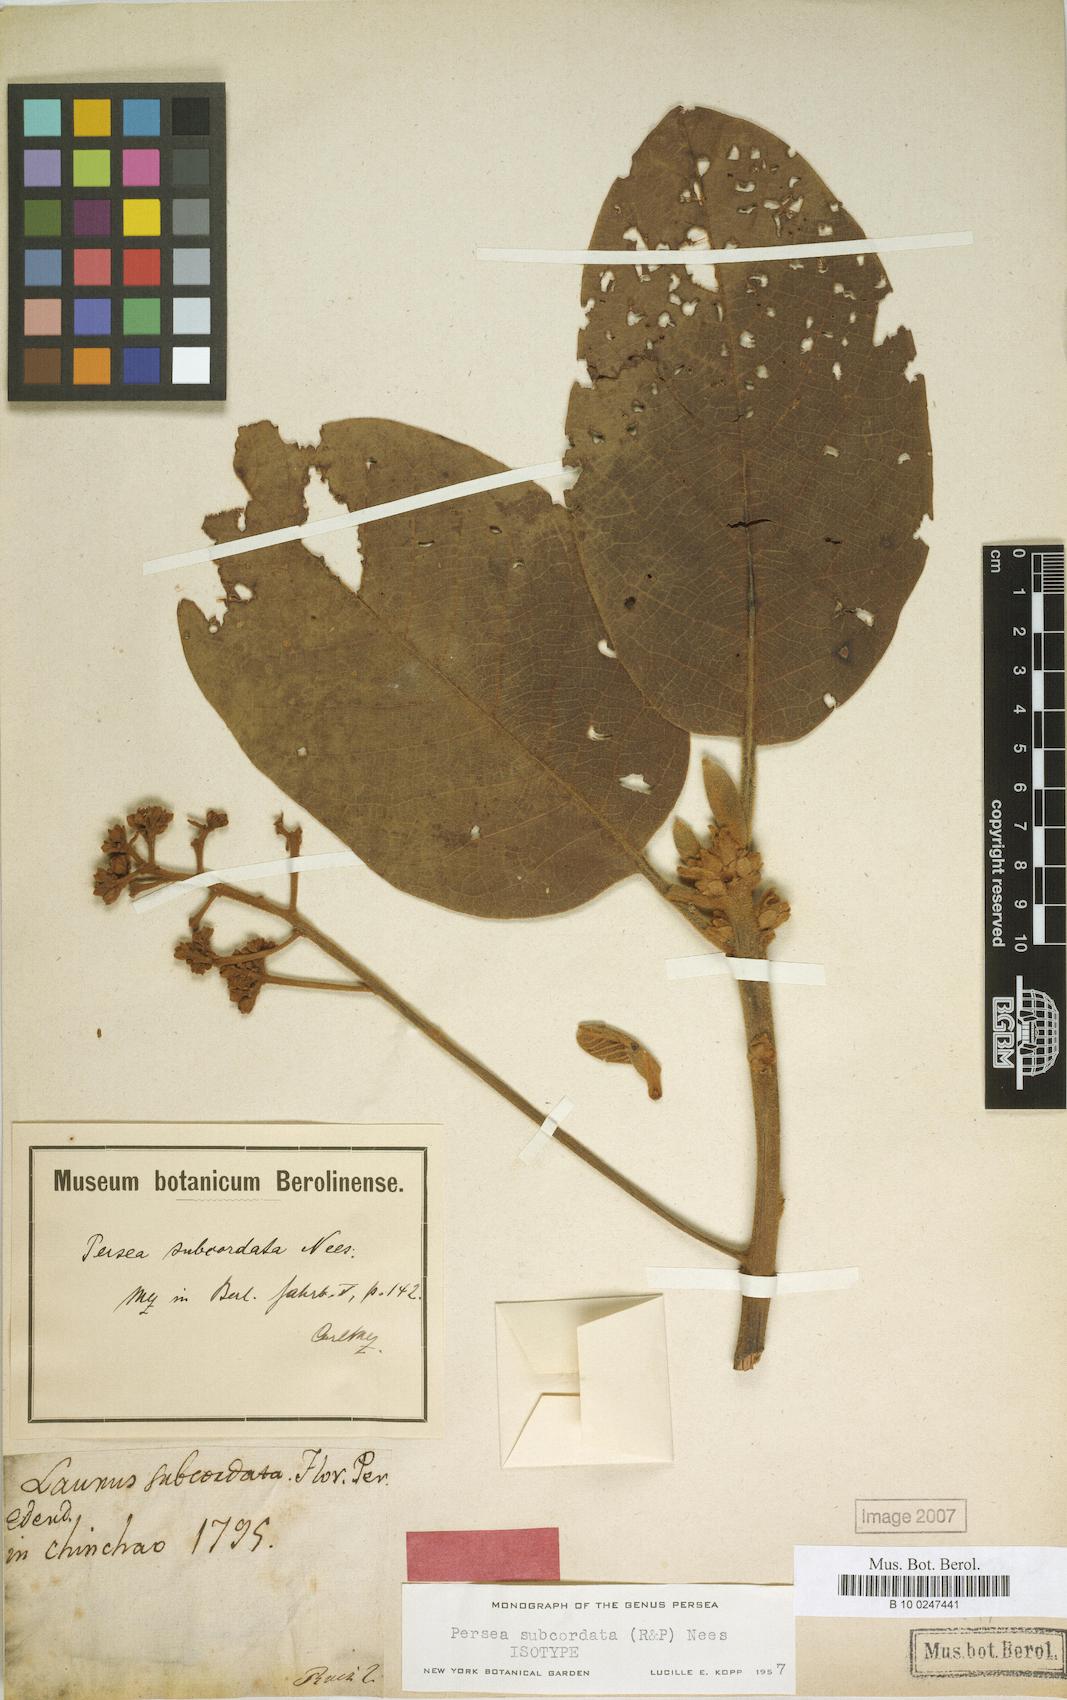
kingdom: Plantae
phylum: Tracheophyta
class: Magnoliopsida
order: Laurales
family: Lauraceae
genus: Persea
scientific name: Persea subcordata
